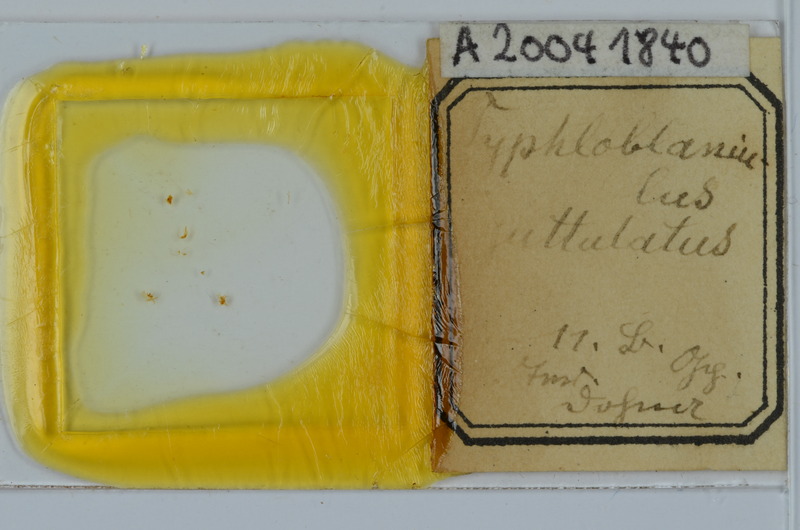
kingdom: Animalia
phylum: Arthropoda
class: Diplopoda
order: Julida
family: Blaniulidae
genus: Blaniulus
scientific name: Blaniulus guttulatus
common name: Spotted snake millipede
